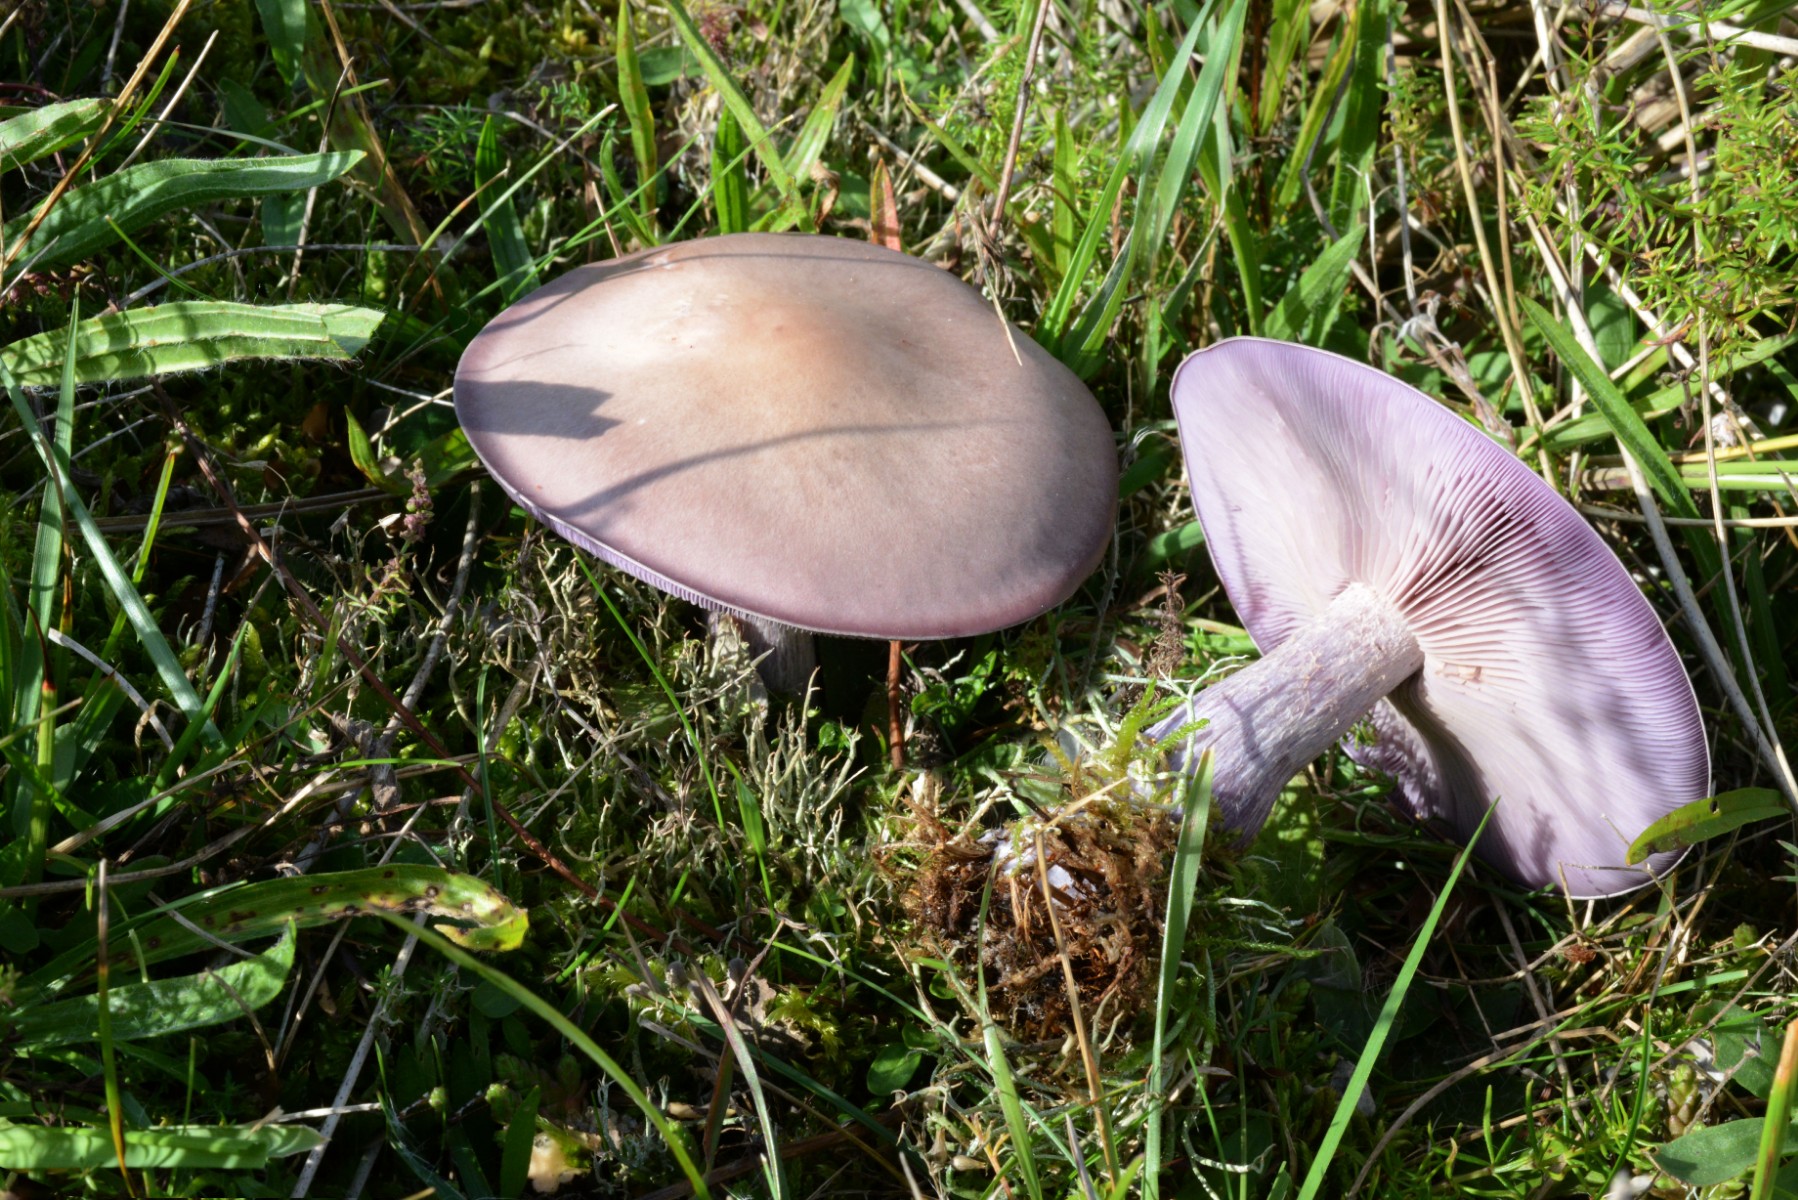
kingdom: Fungi
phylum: Basidiomycota
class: Agaricomycetes
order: Agaricales
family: Tricholomataceae
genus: Lepista
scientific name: Lepista nuda
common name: violet hekseringshat
